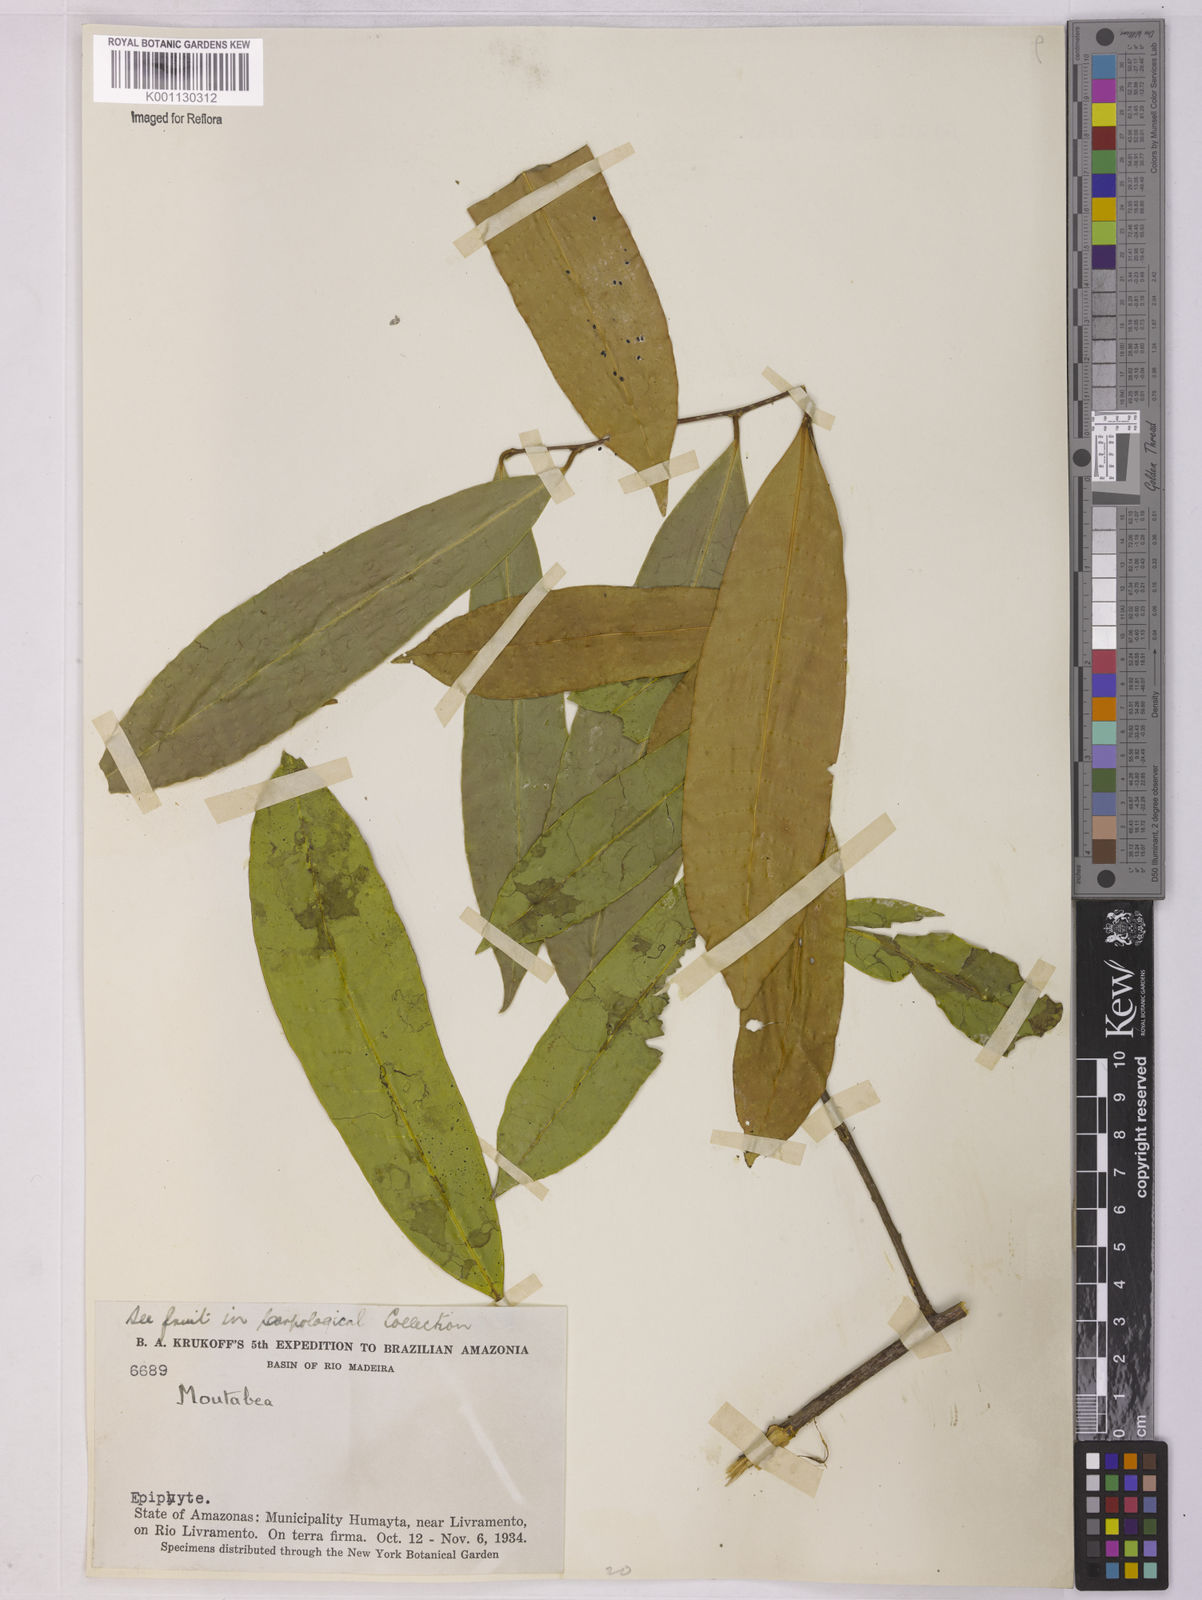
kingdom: Plantae
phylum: Tracheophyta
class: Magnoliopsida
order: Fabales
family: Polygalaceae
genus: Moutabea
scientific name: Moutabea
